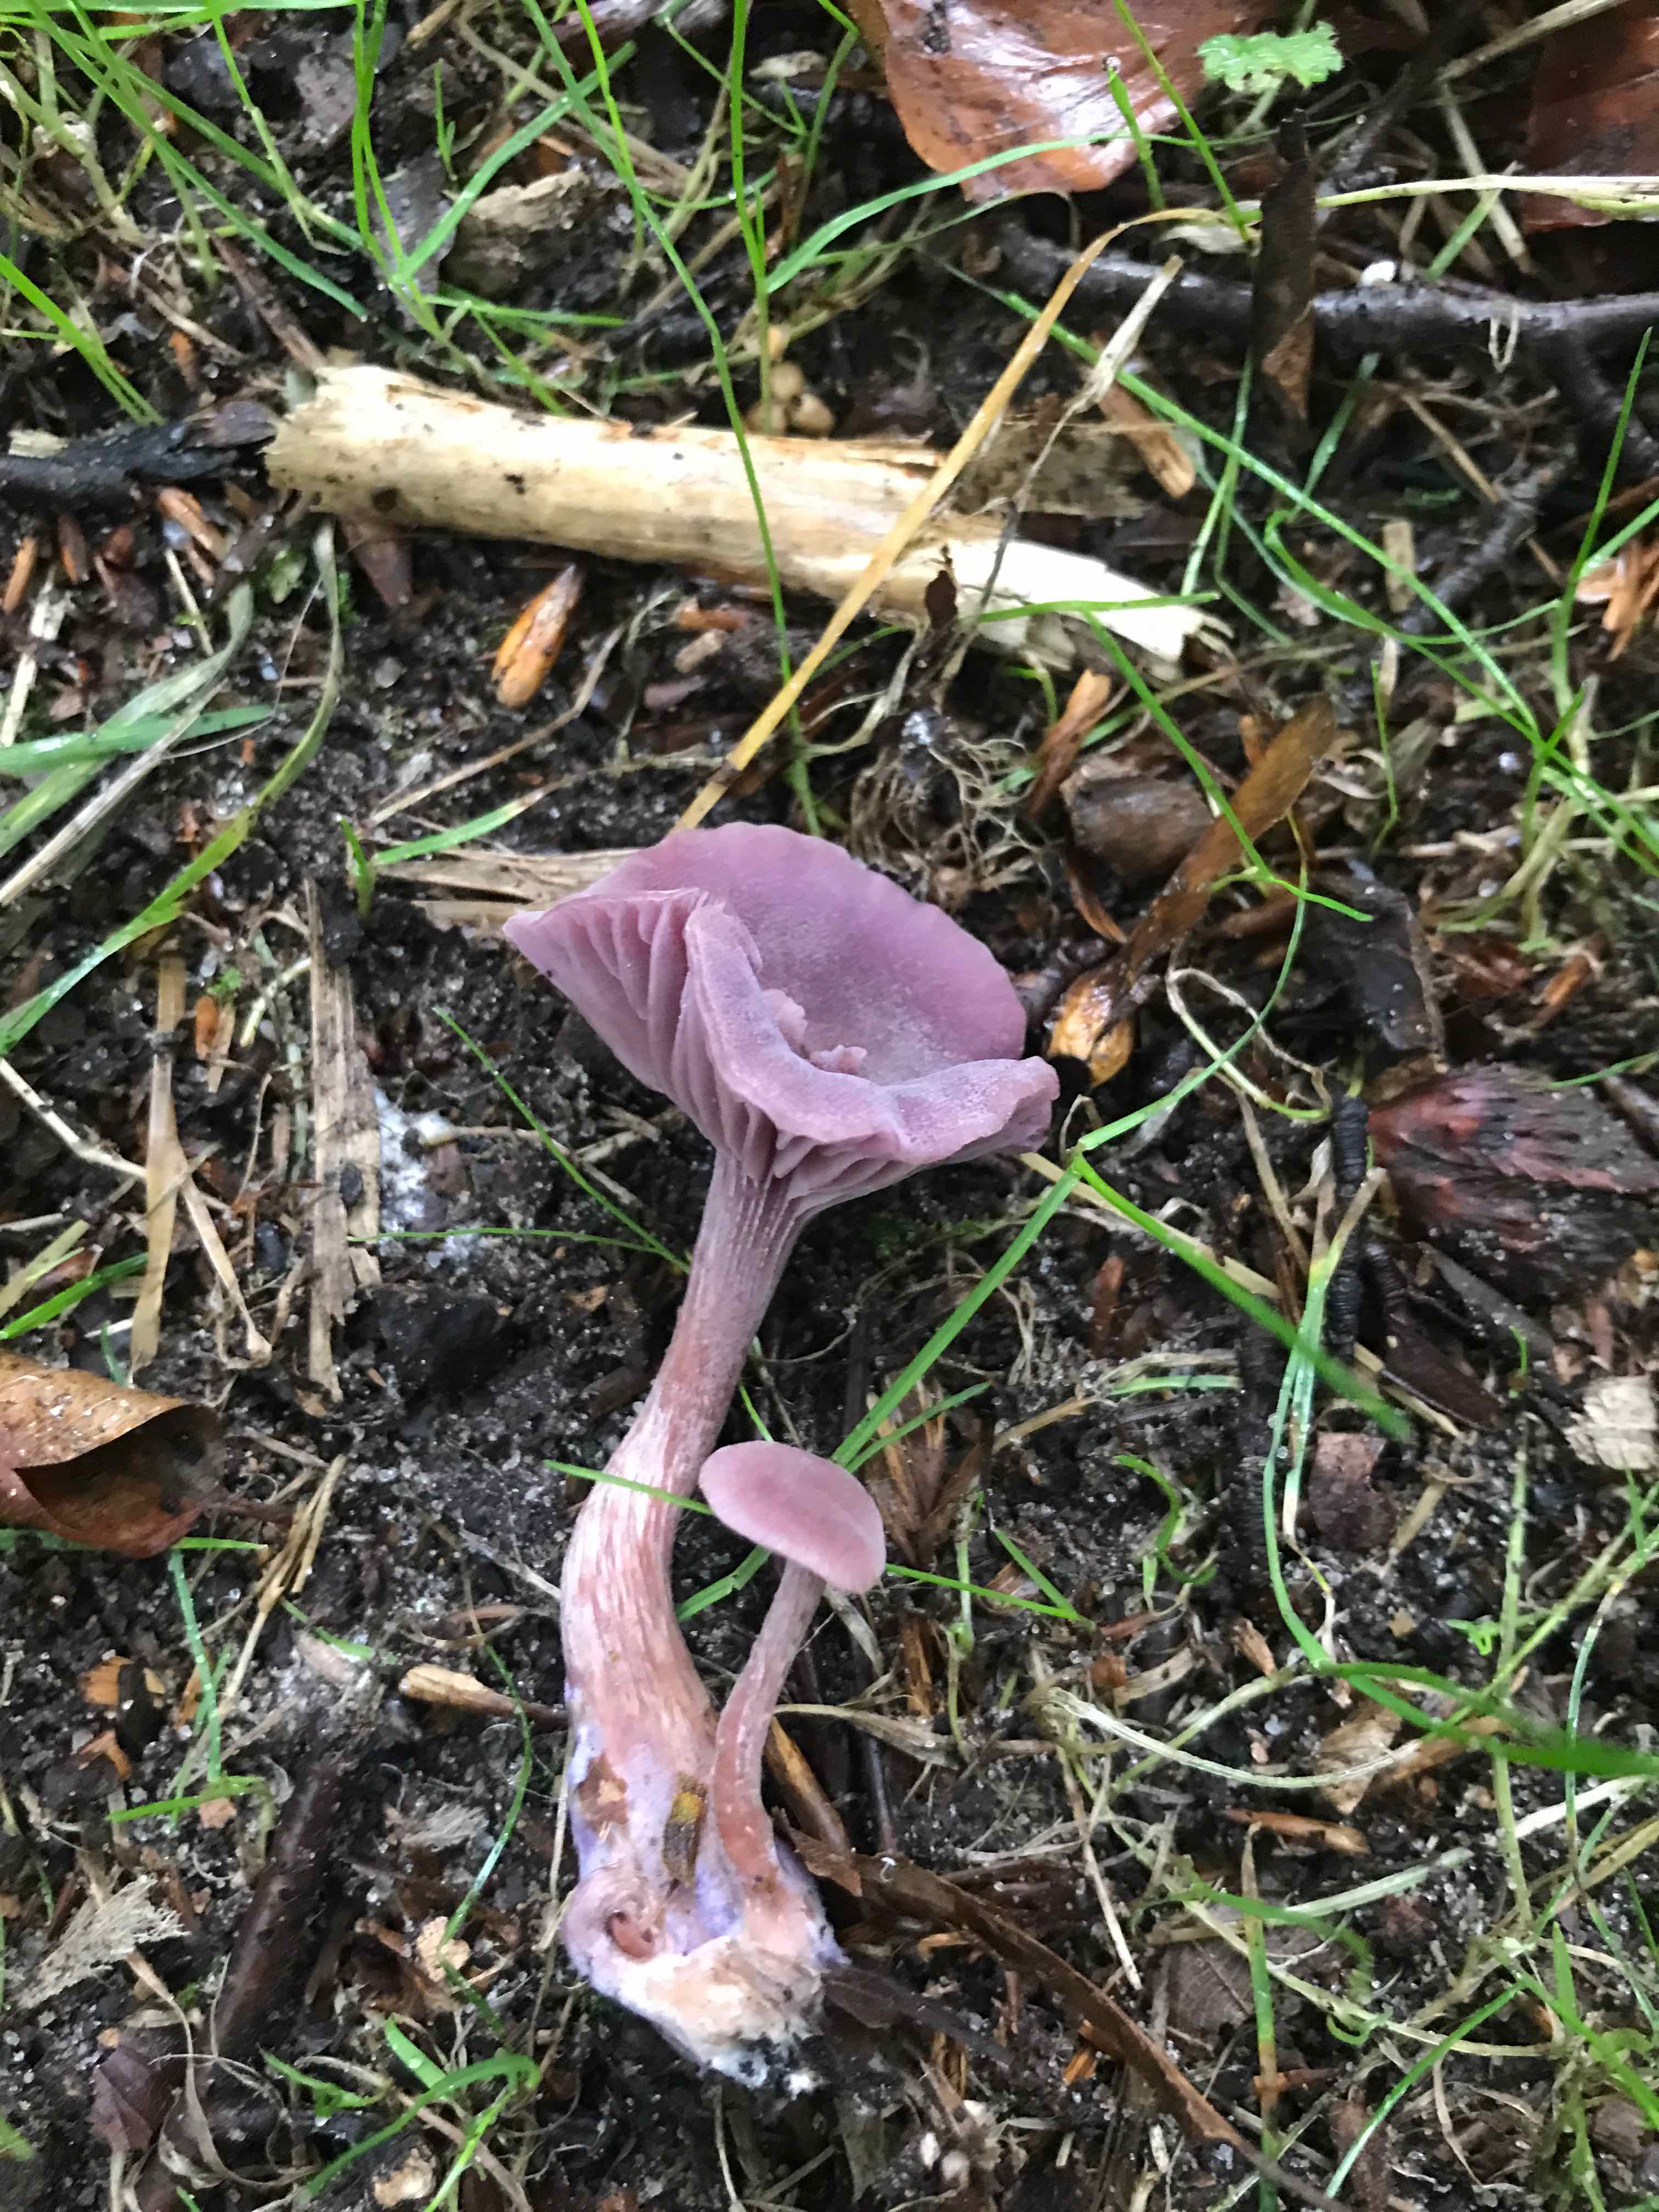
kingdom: Fungi
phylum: Basidiomycota
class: Agaricomycetes
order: Agaricales
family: Hydnangiaceae
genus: Laccaria
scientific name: Laccaria amethystina
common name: violet ametysthat
